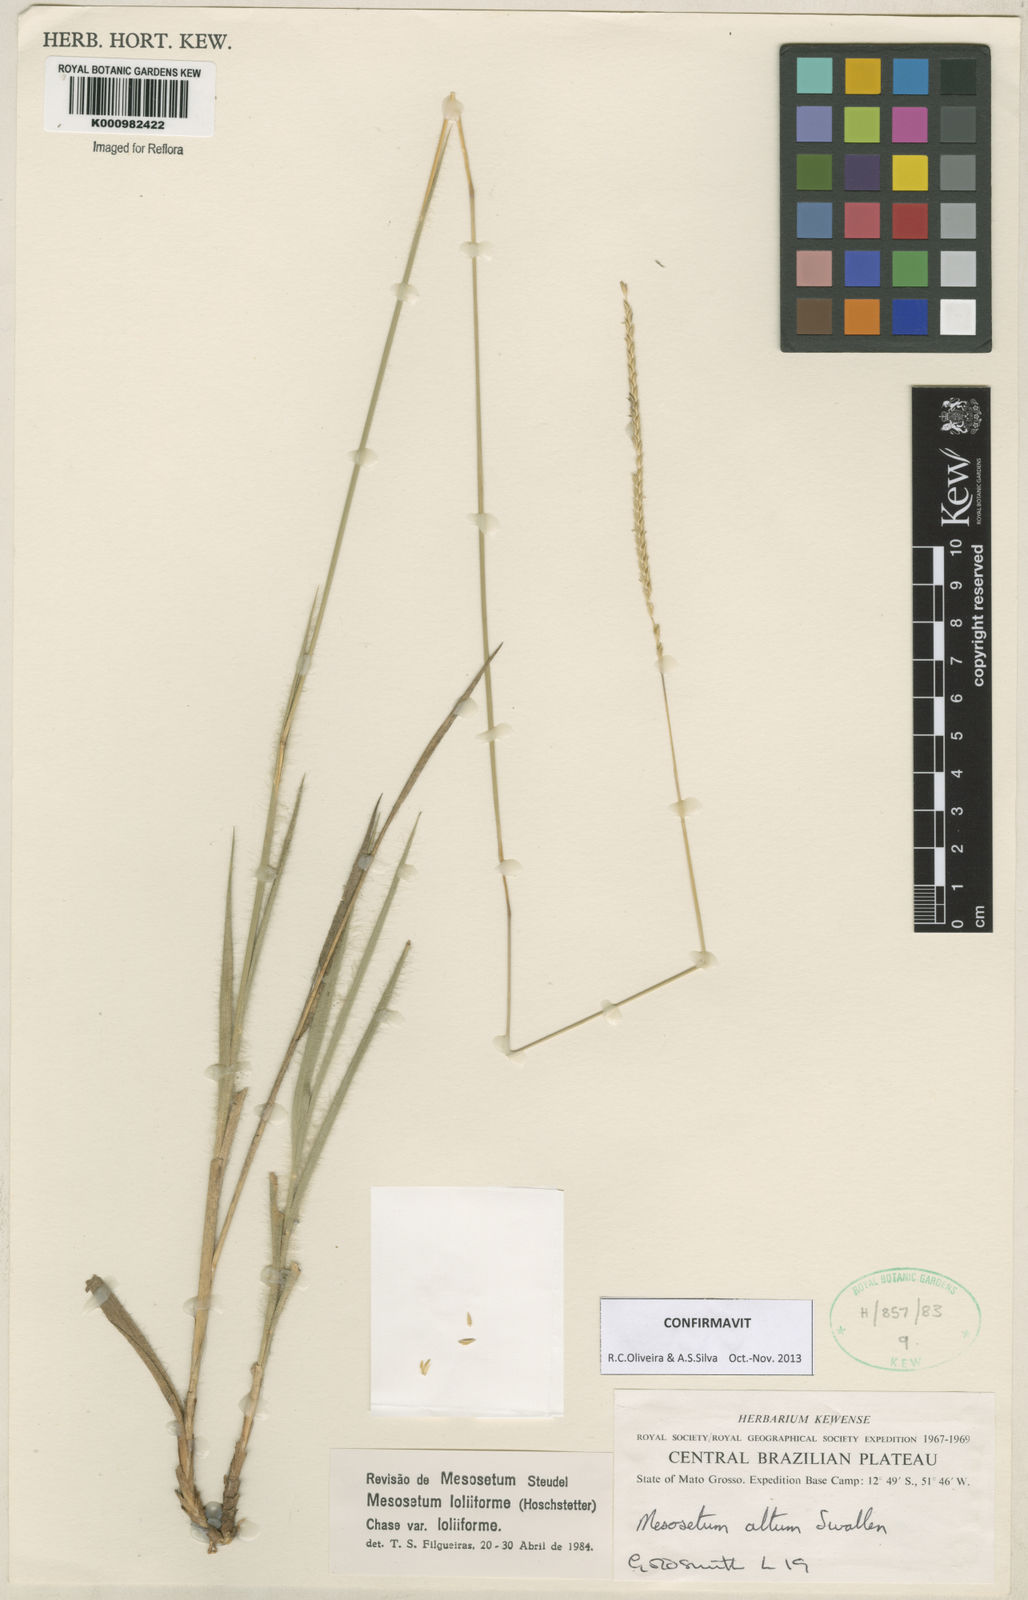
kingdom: Plantae
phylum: Tracheophyta
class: Liliopsida
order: Poales
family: Poaceae
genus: Mesosetum
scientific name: Mesosetum
